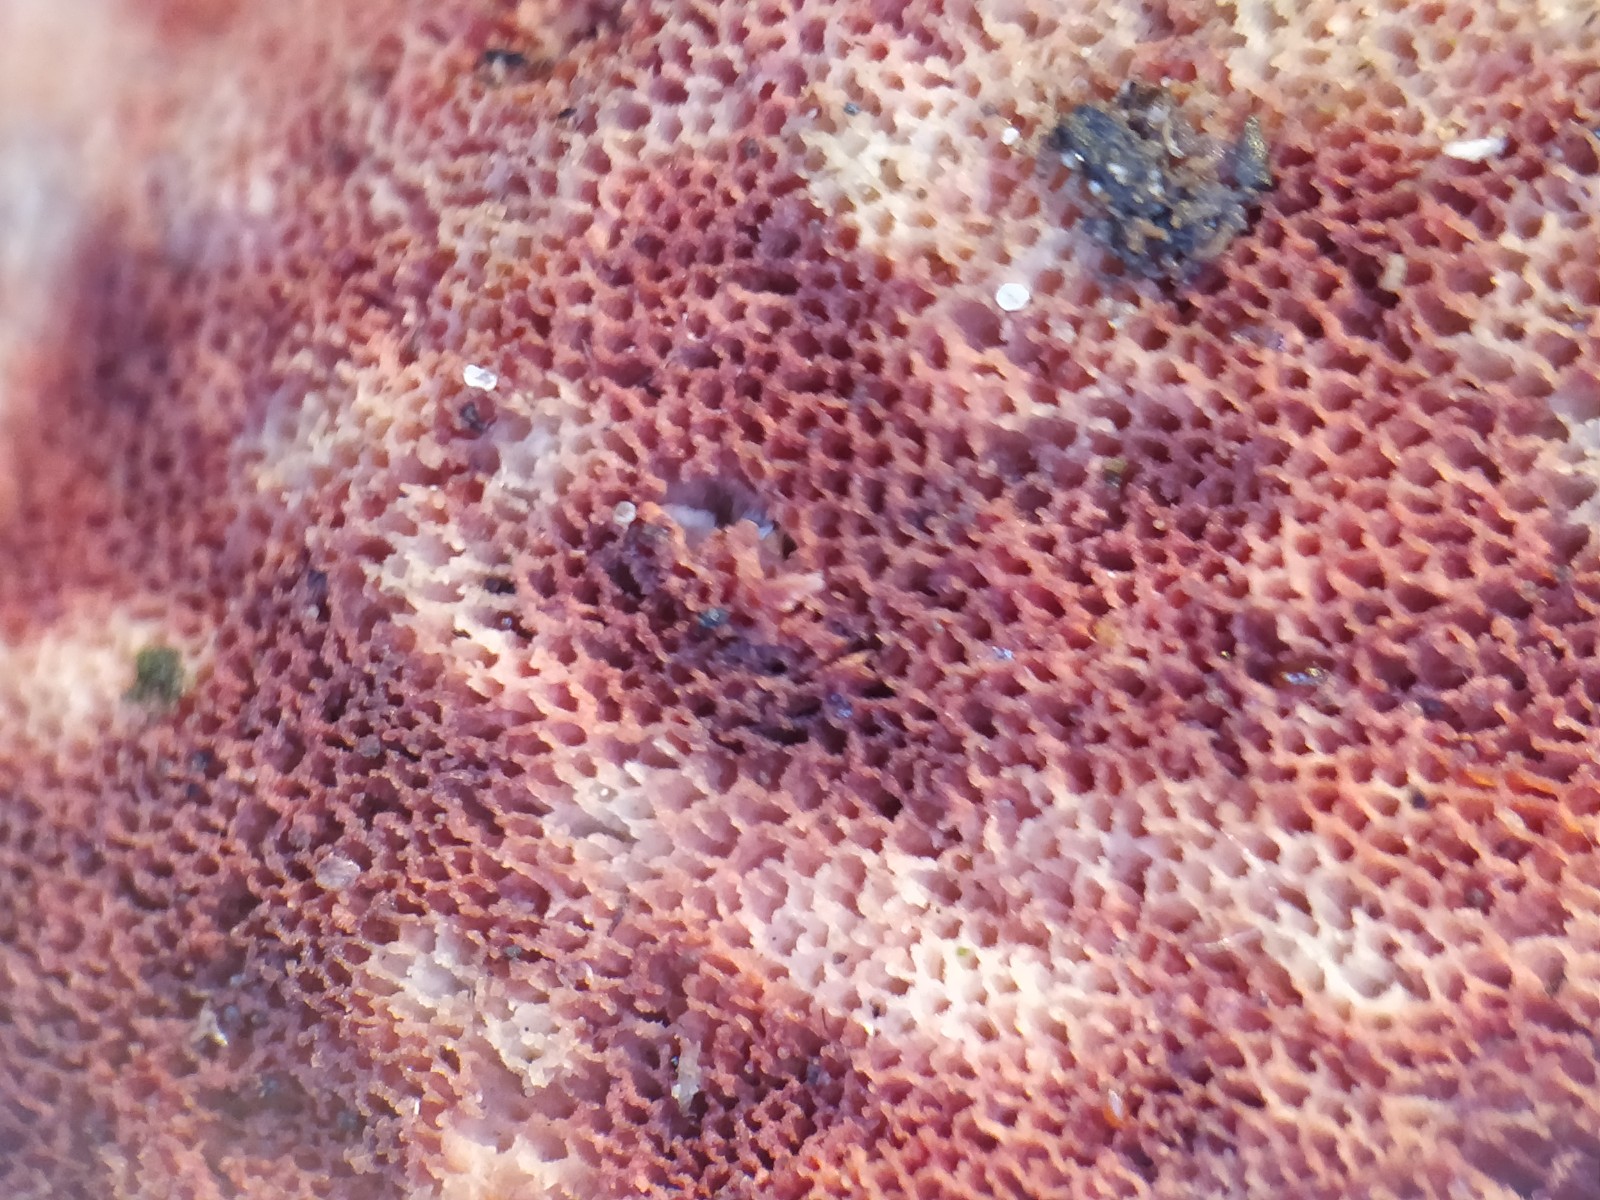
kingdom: Fungi
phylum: Basidiomycota
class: Agaricomycetes
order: Polyporales
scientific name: Polyporales
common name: poresvampordenen
